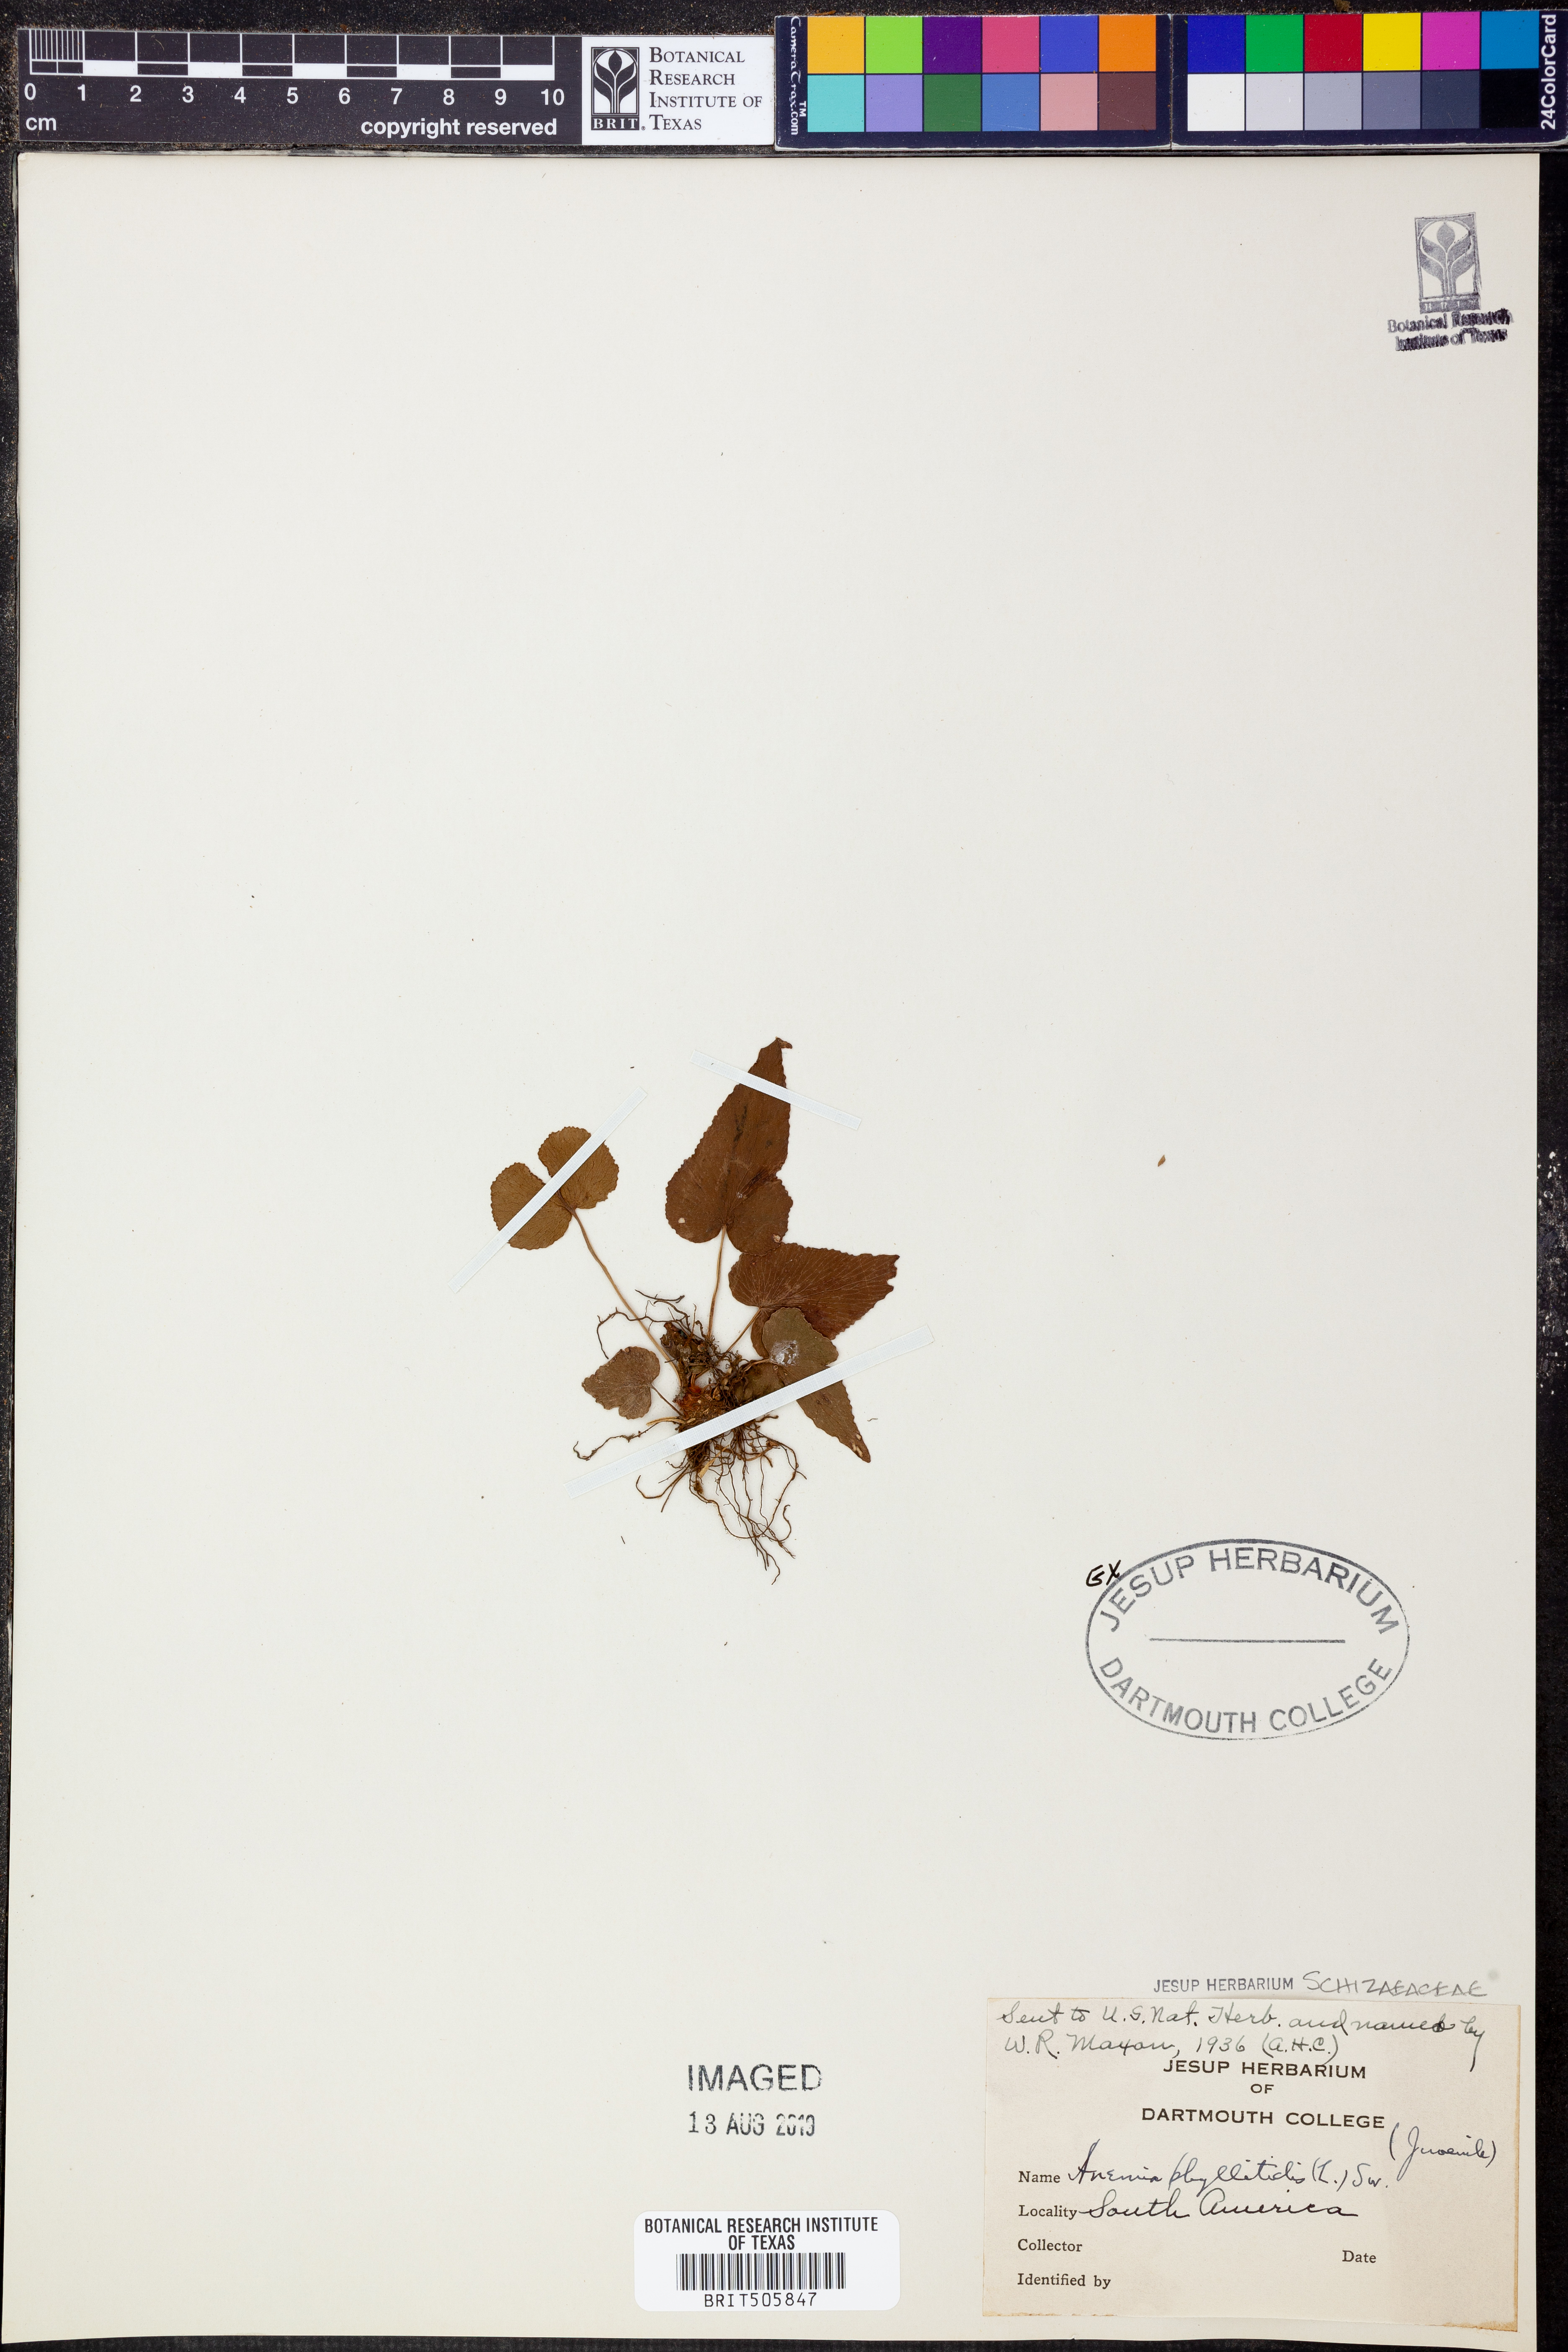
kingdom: Plantae
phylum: Tracheophyta
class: Polypodiopsida
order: Schizaeales
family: Anemiaceae
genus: Anemia
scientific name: Anemia phyllitidis
